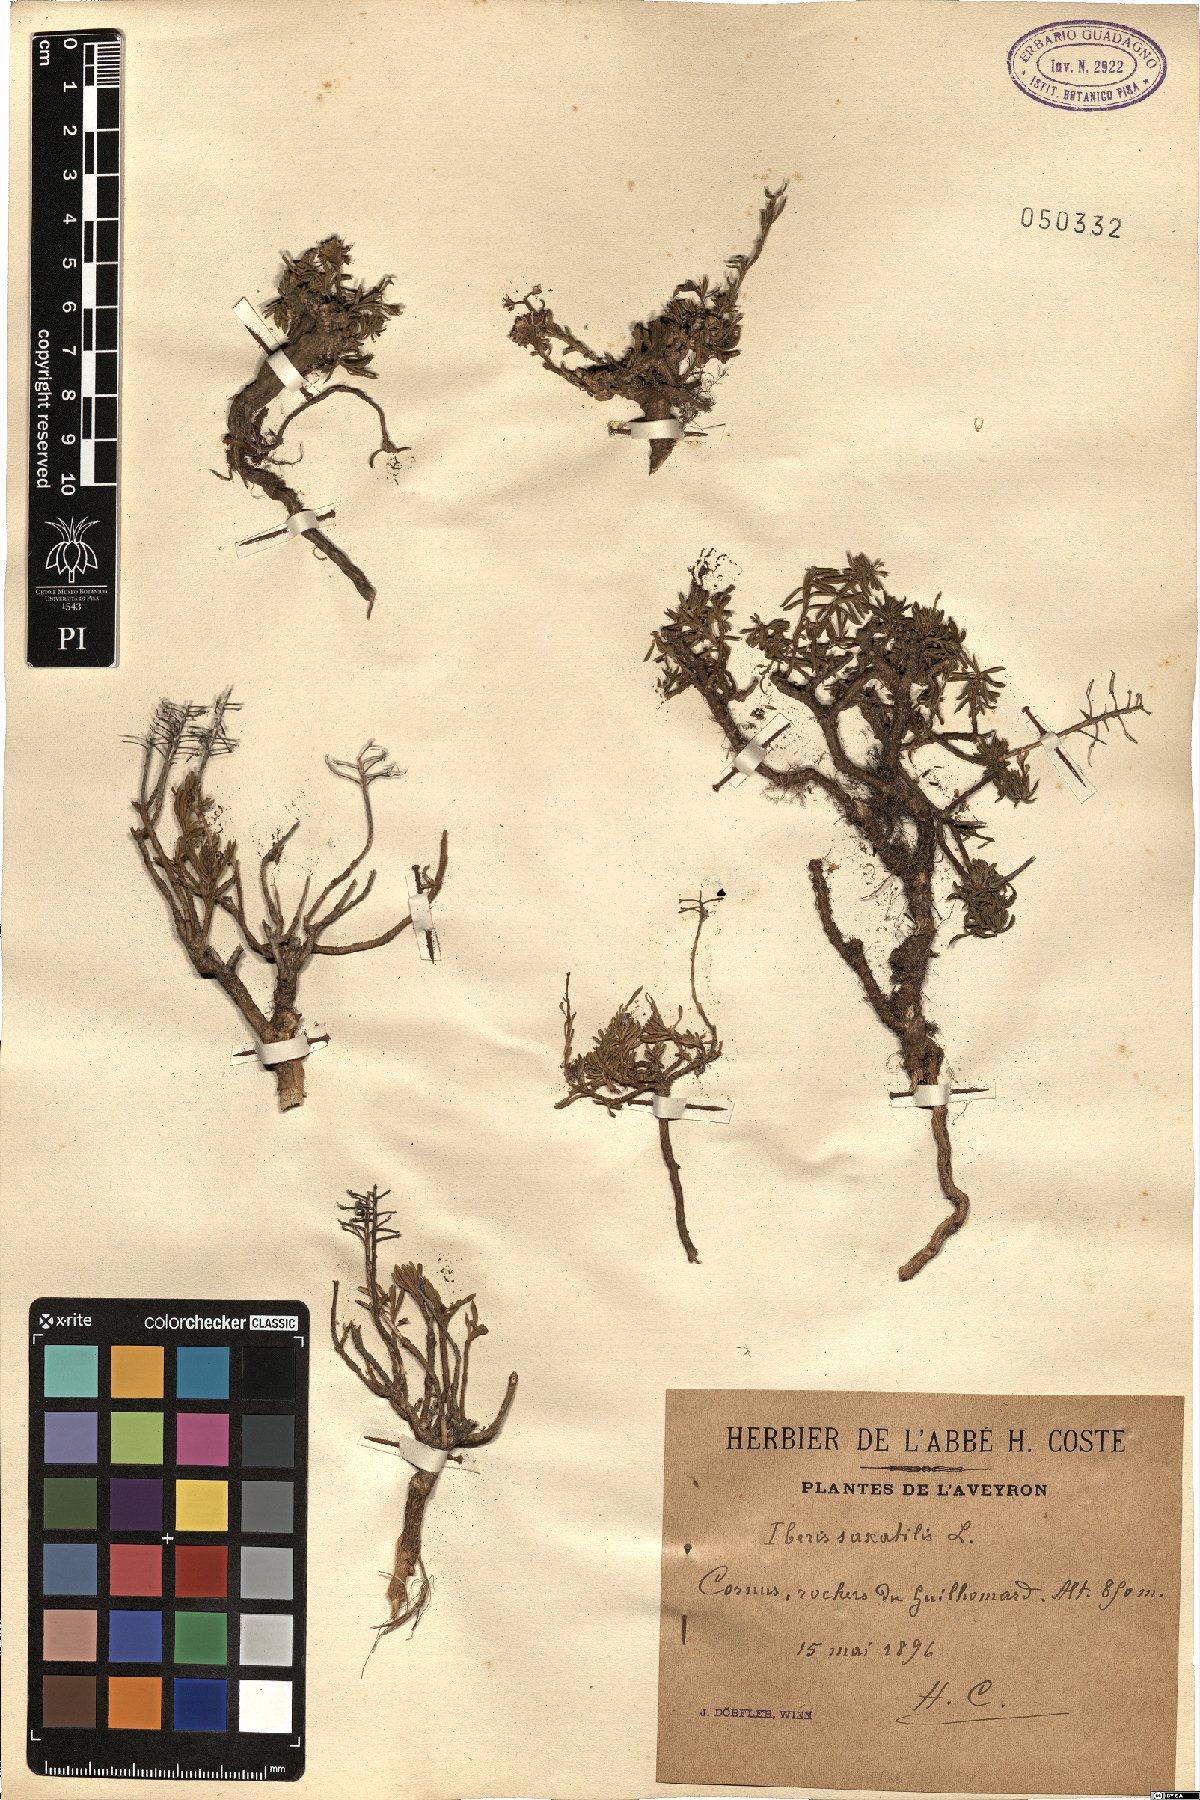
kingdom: Plantae
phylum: Tracheophyta
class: Magnoliopsida
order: Brassicales
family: Brassicaceae
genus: Iberis
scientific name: Iberis saxatilis
